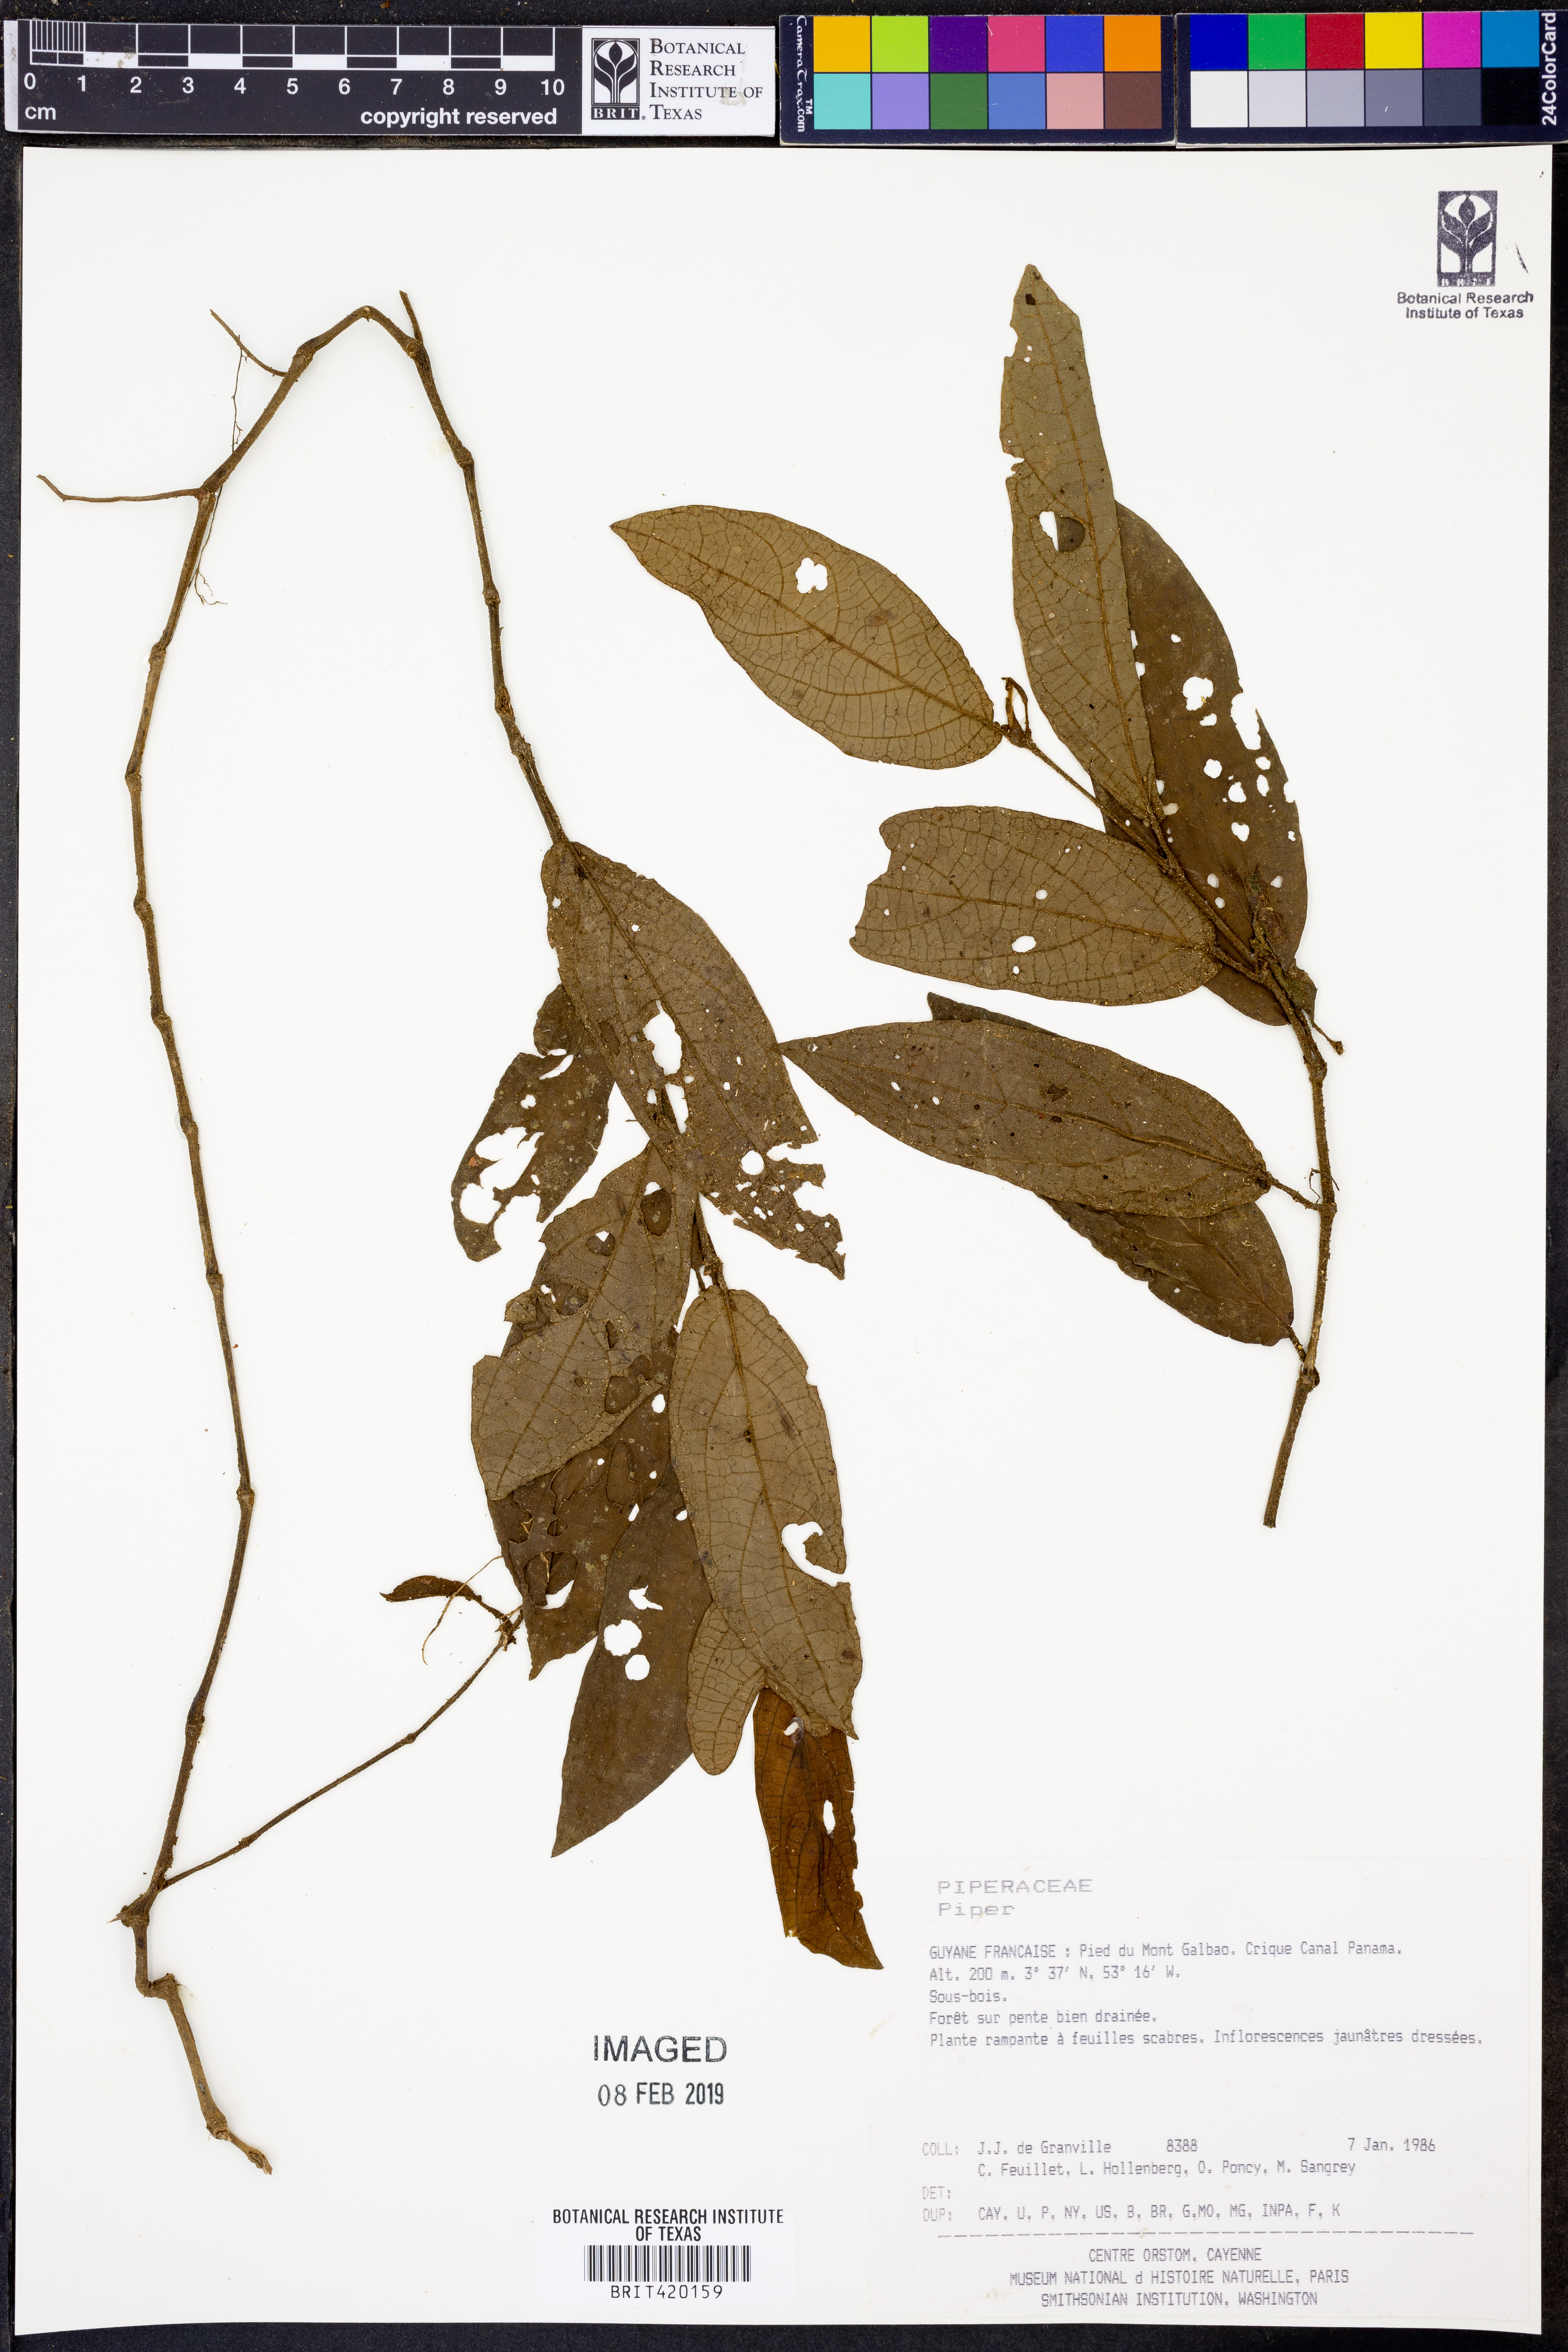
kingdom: Plantae
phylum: Tracheophyta
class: Magnoliopsida
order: Piperales
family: Piperaceae
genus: Piper
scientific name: Piper
